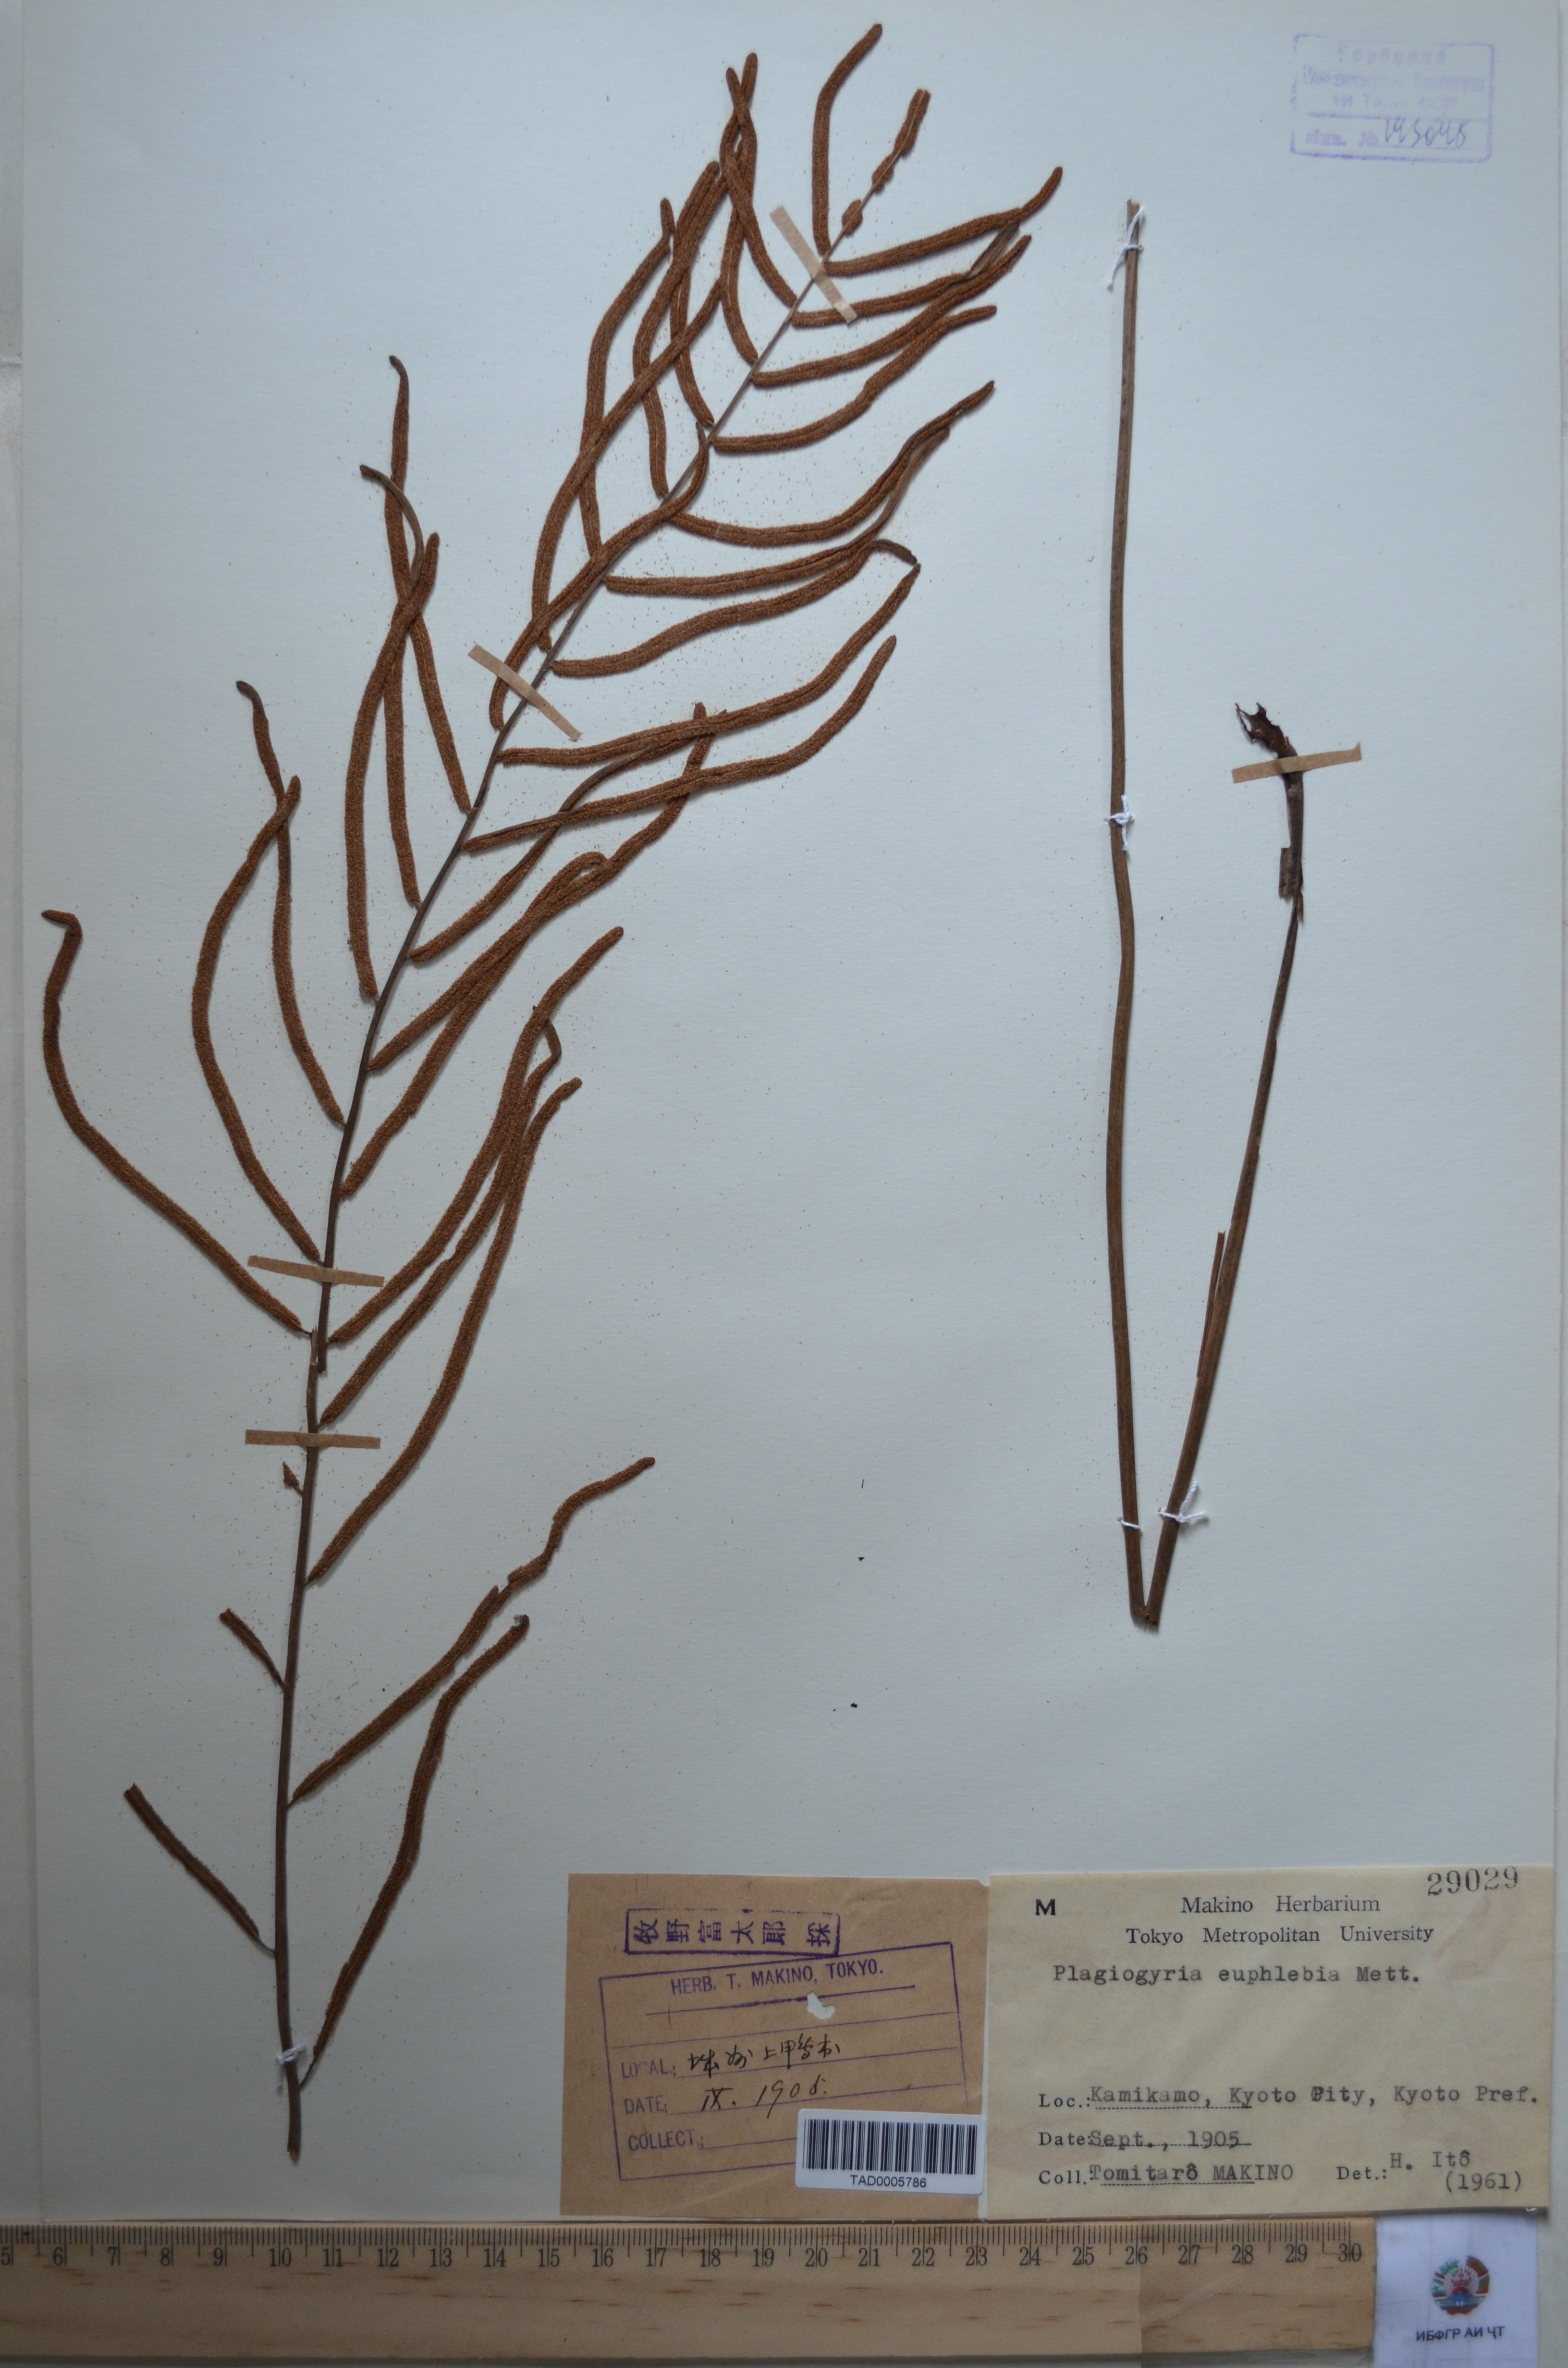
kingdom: Plantae
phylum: Tracheophyta
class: Polypodiopsida
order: Cyatheales
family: Plagiogyriaceae
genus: Plagiogyria
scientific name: Plagiogyria euphlebia
